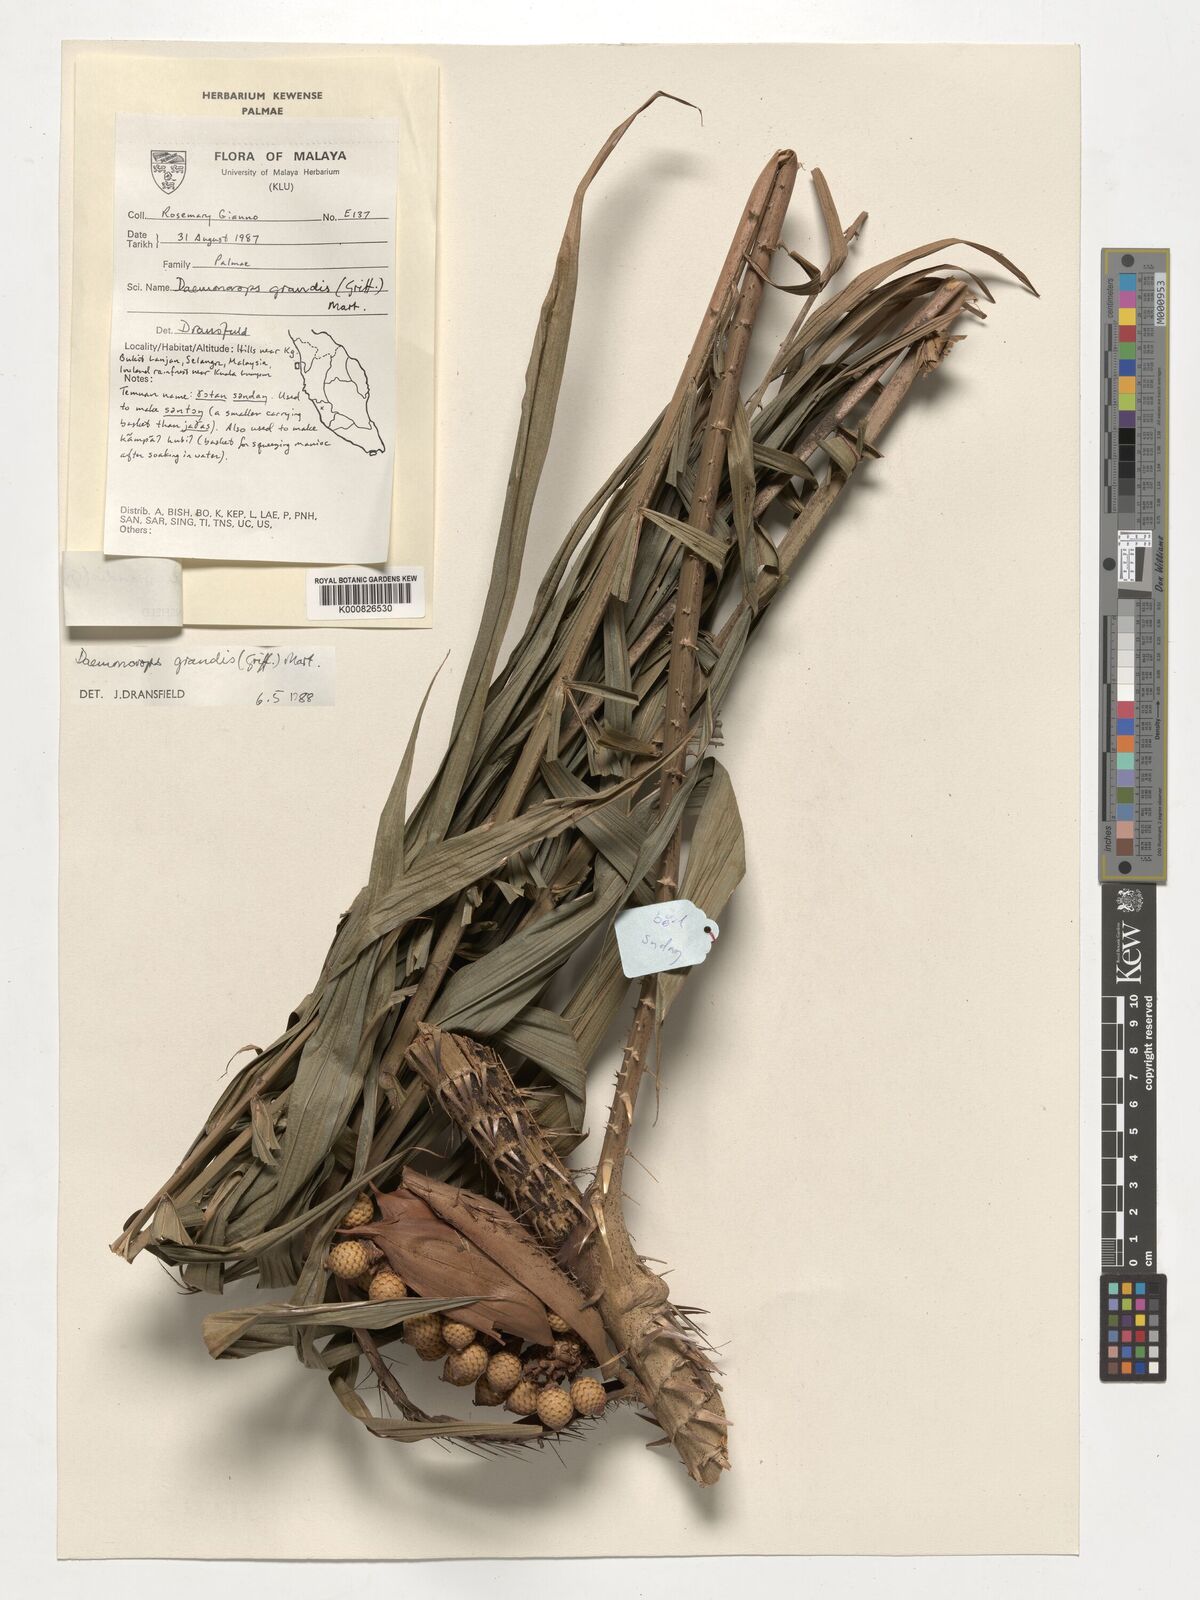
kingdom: Plantae
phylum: Tracheophyta
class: Liliopsida
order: Arecales
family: Arecaceae
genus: Calamus
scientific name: Calamus melanochaetes
